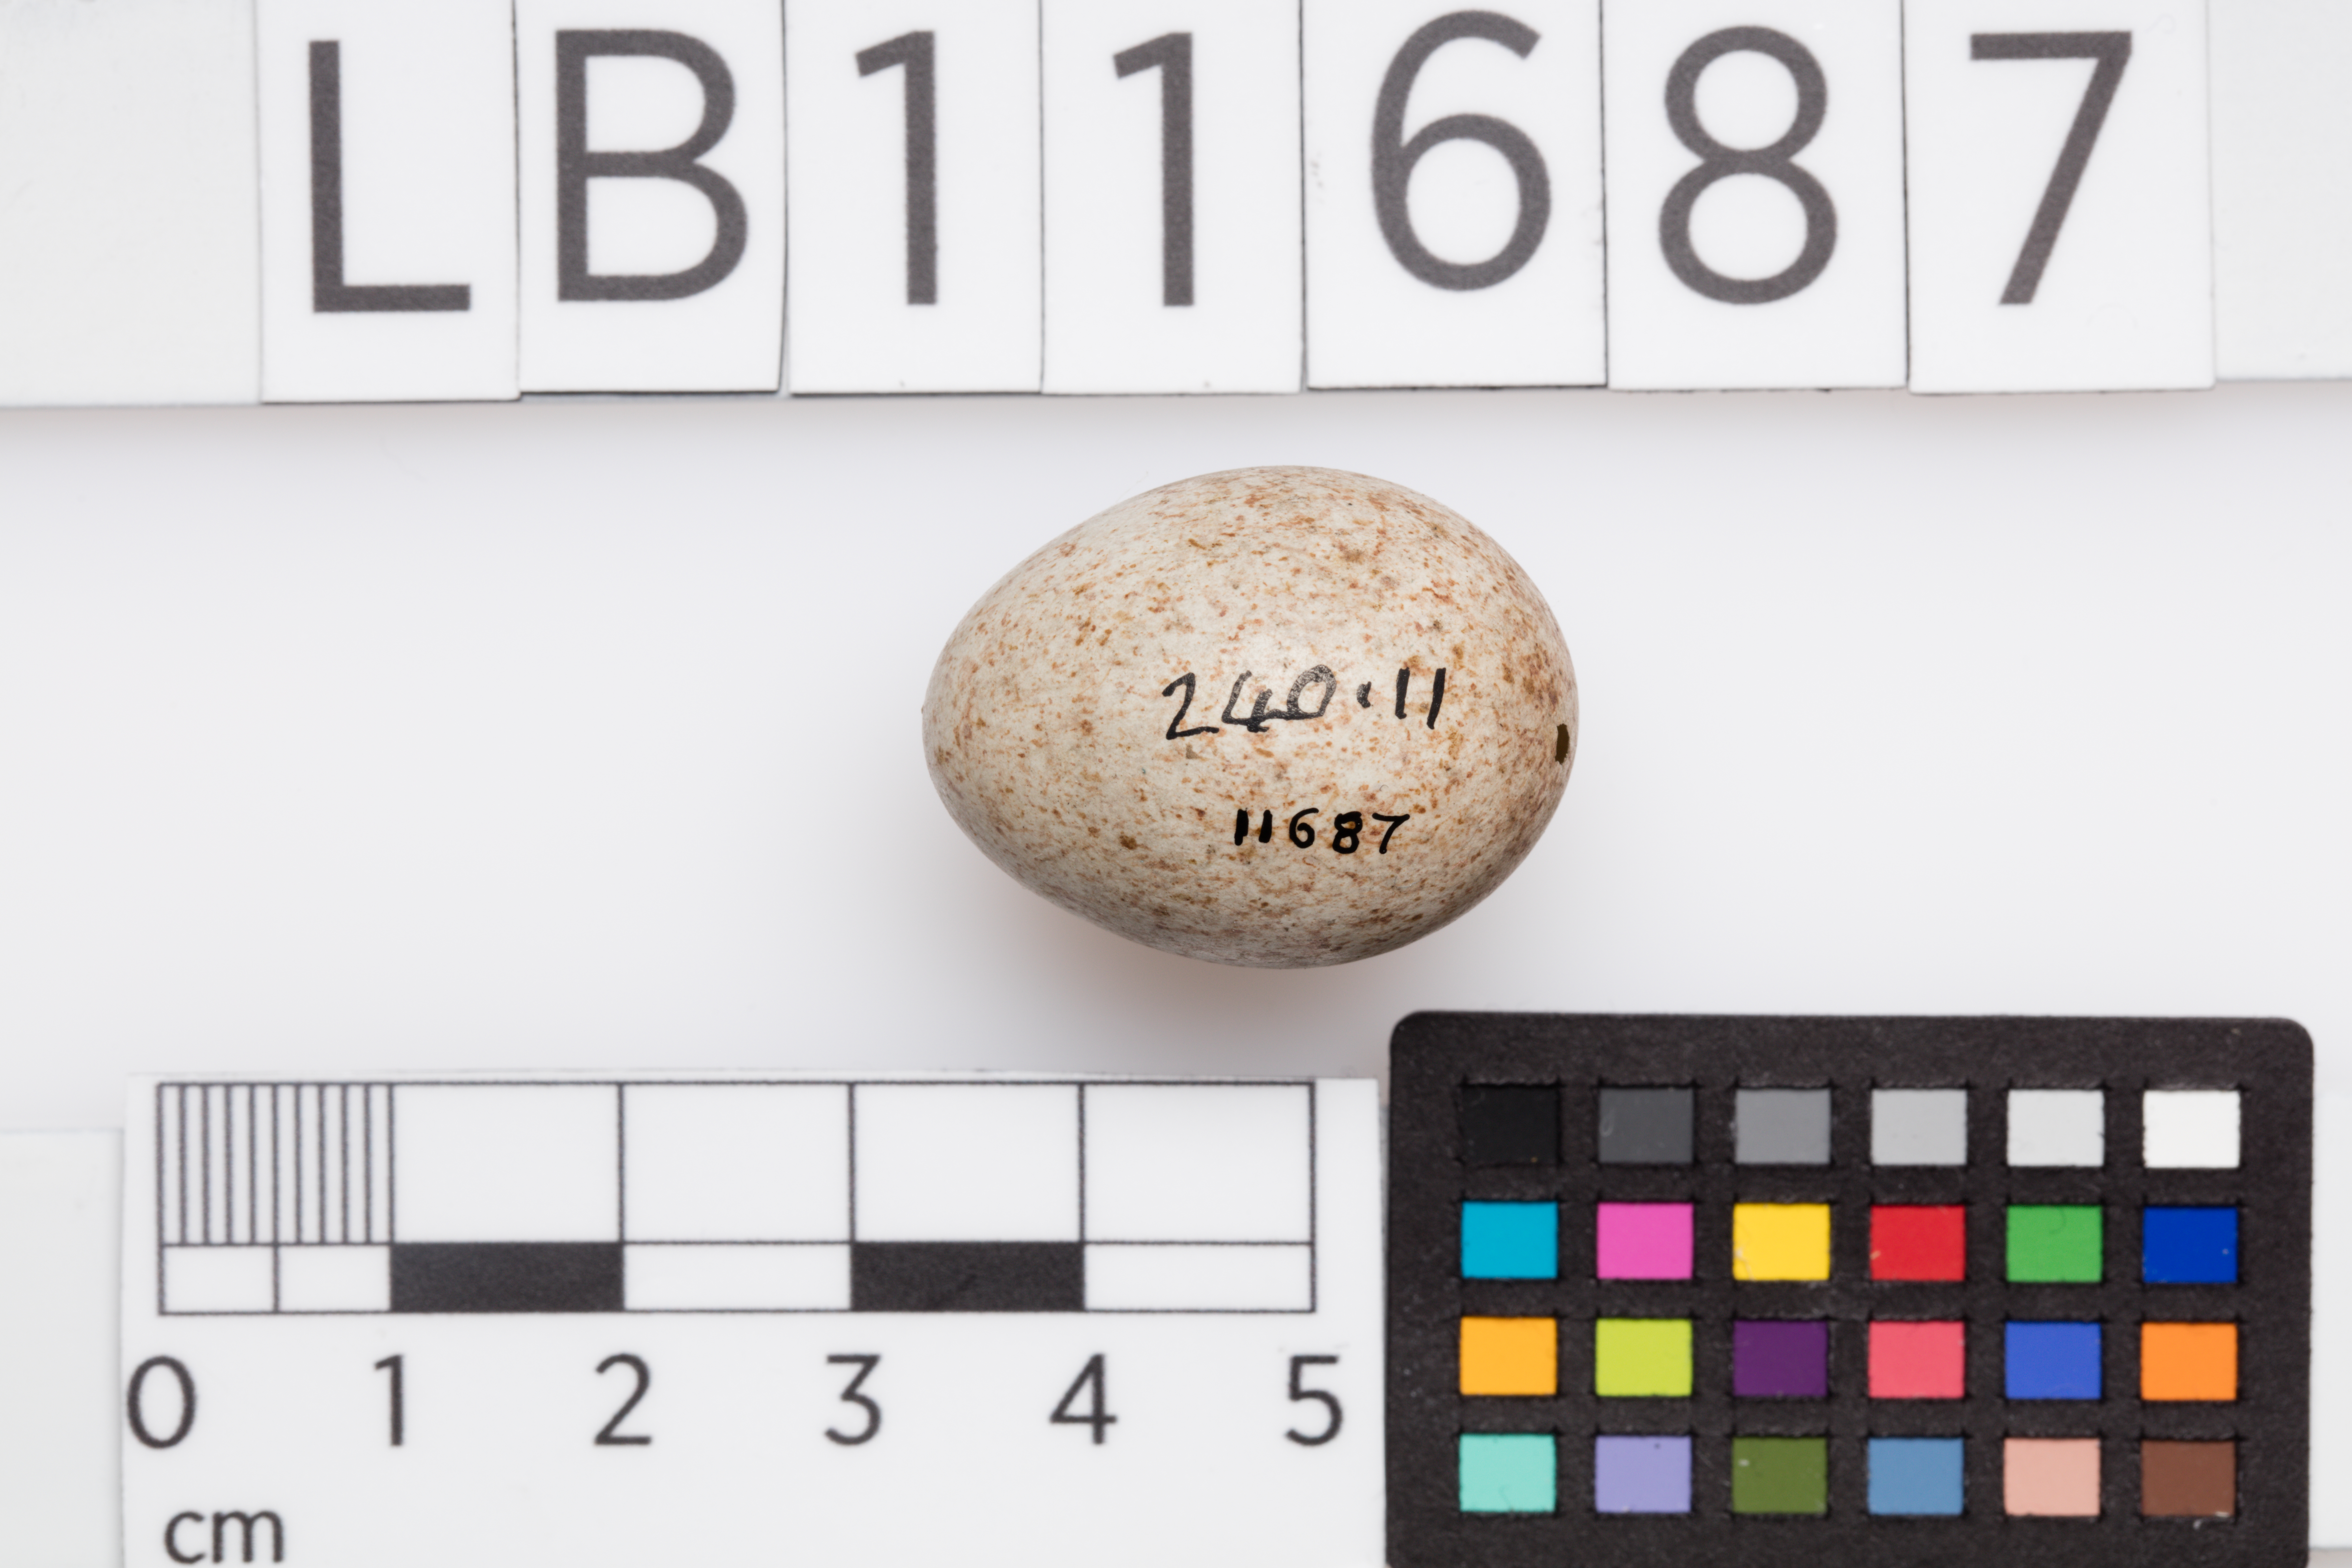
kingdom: Animalia
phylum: Chordata
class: Aves
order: Passeriformes
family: Turdidae
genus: Turdus
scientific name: Turdus merula
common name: Common blackbird
